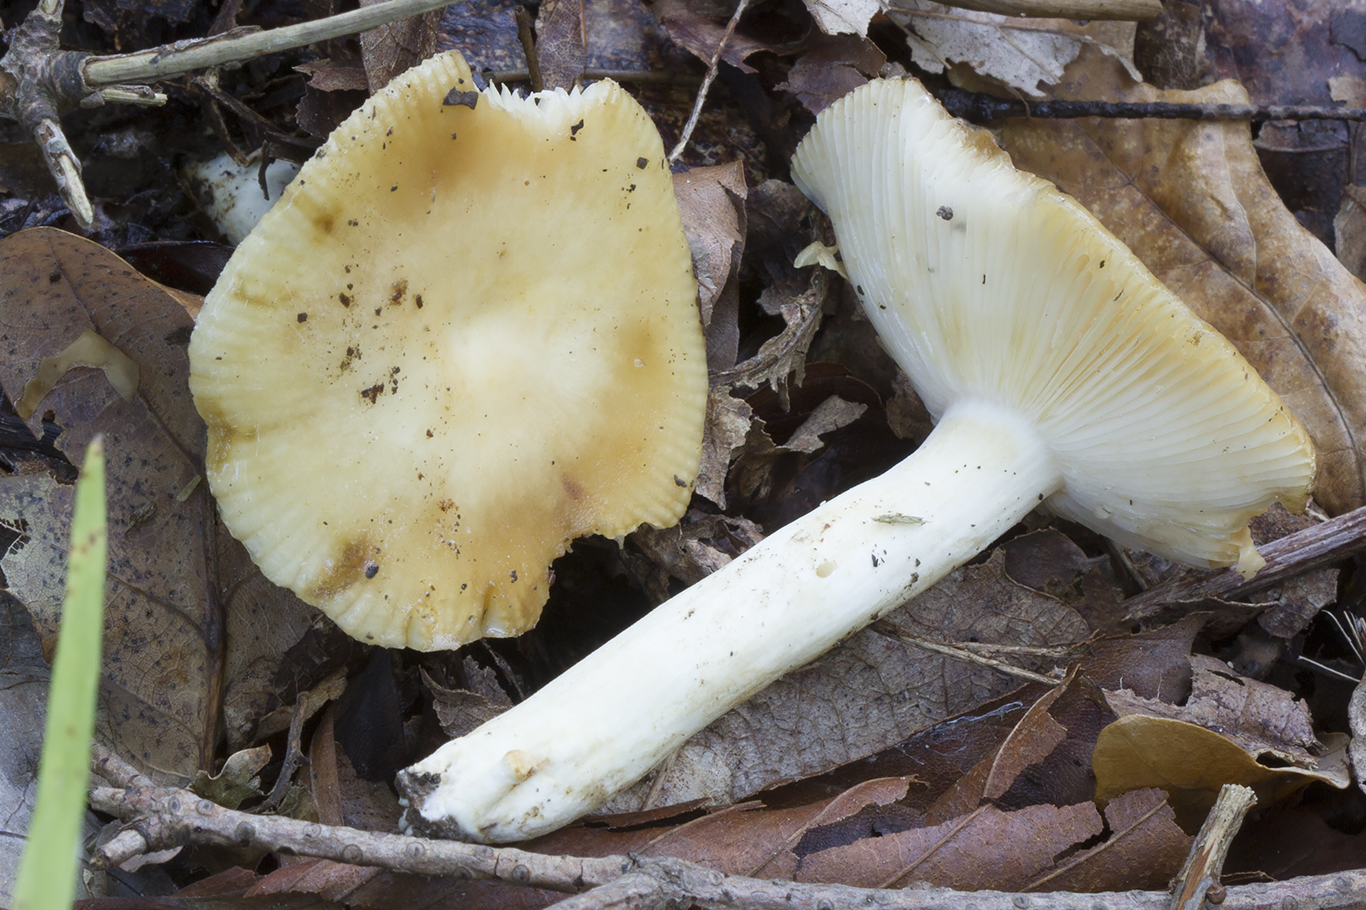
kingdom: Fungi
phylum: Basidiomycota
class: Agaricomycetes
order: Russulales
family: Russulaceae
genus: Russula
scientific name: Russula farinipes
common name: gul kam-skørhat
